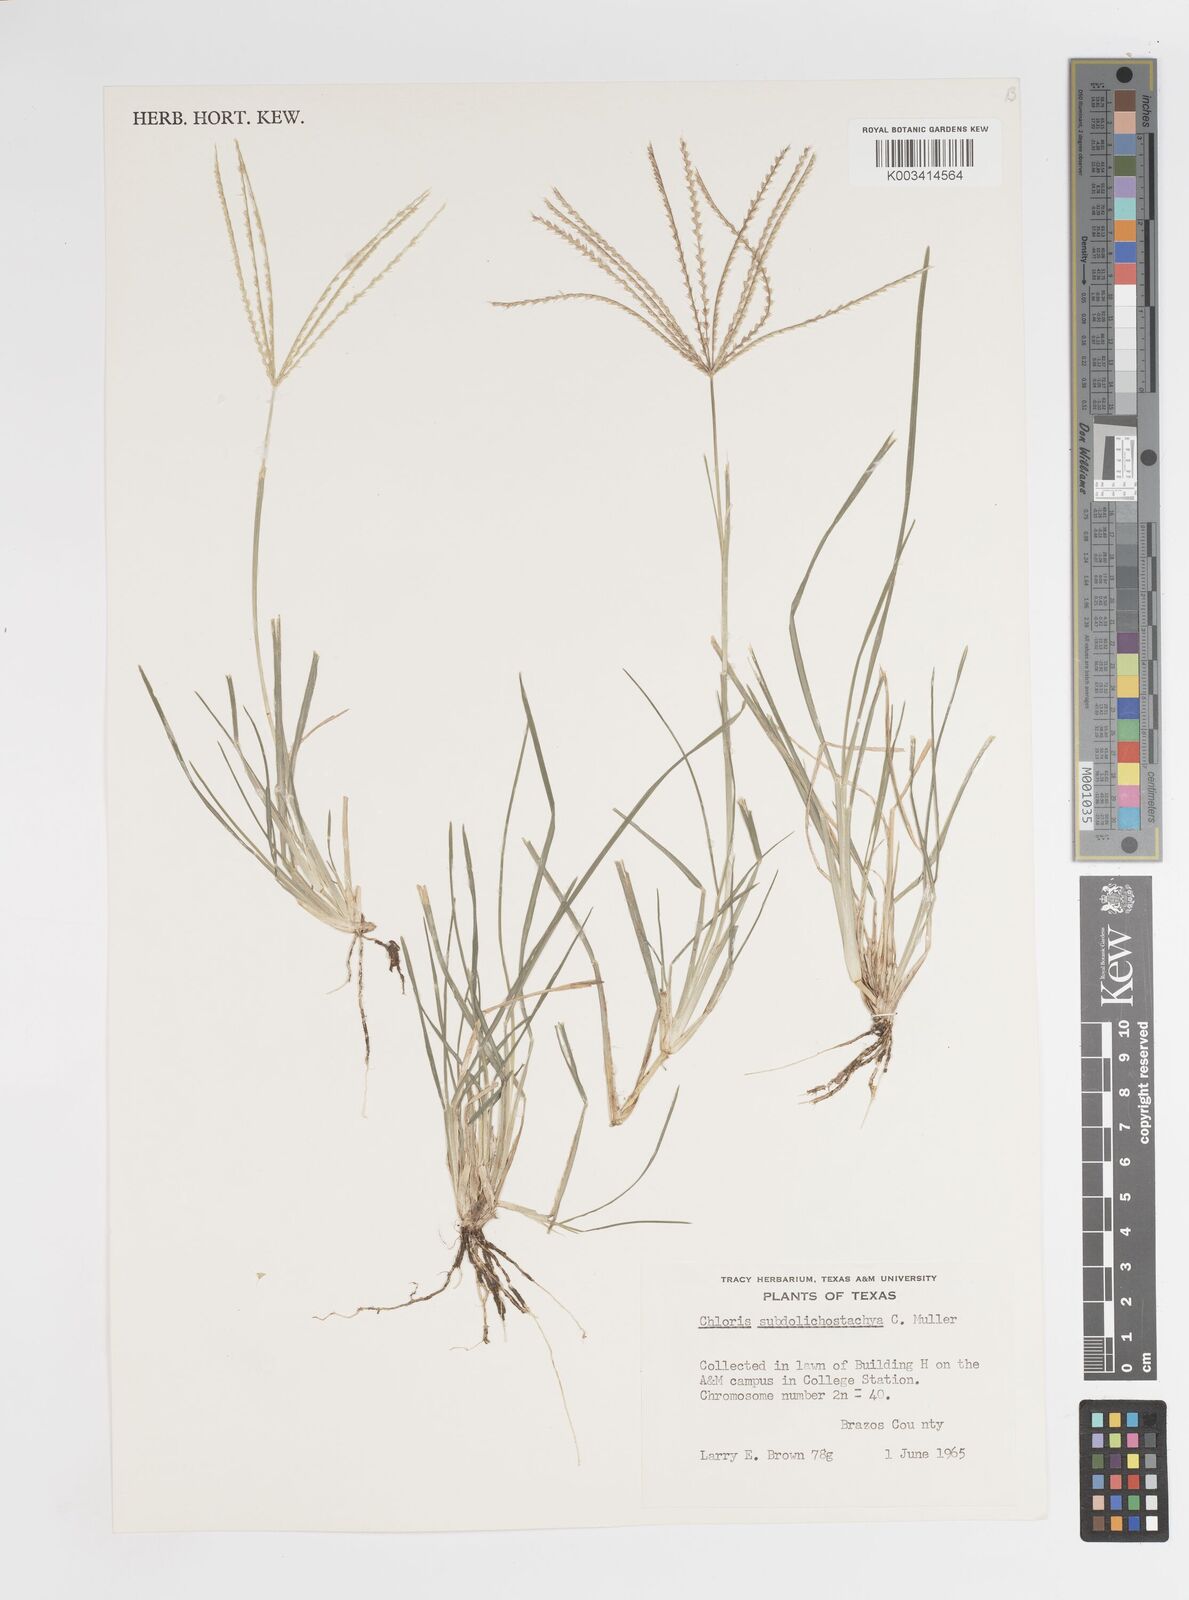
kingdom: Plantae
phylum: Tracheophyta
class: Liliopsida
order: Poales
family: Poaceae
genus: Chloris
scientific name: Chloris subdolichostachya
